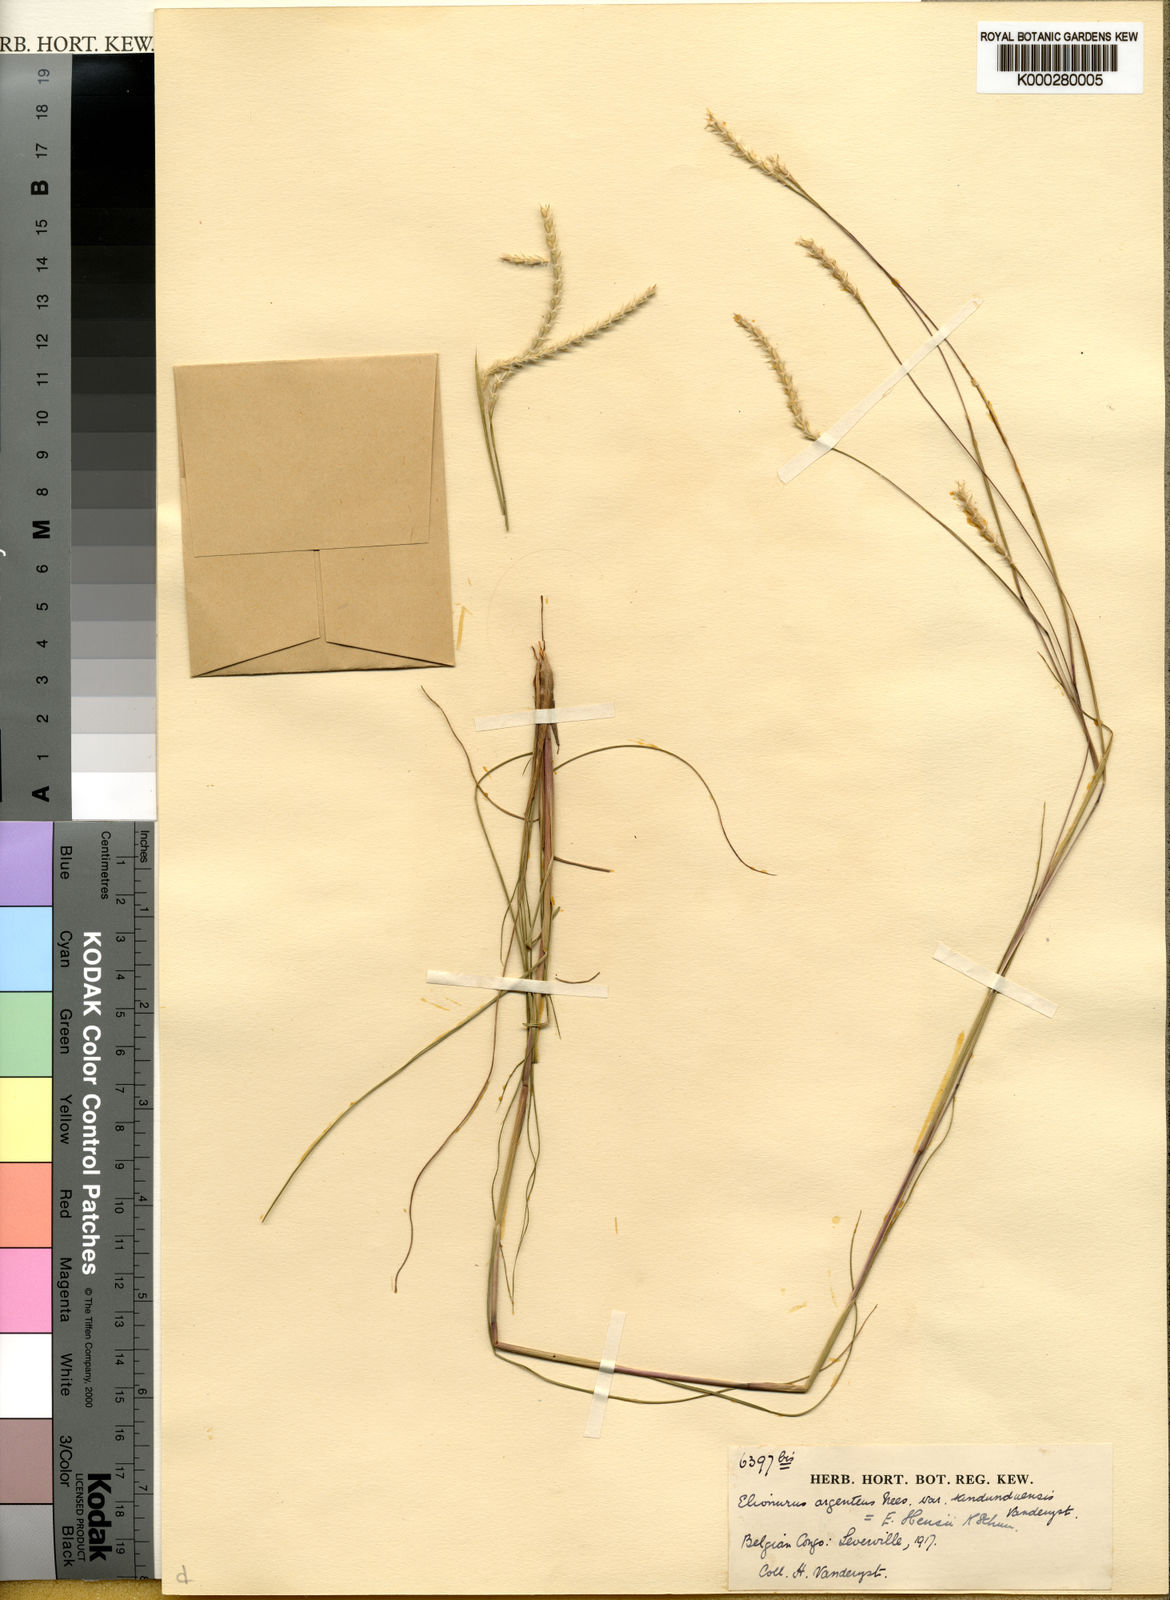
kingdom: Plantae
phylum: Tracheophyta
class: Liliopsida
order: Poales
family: Poaceae
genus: Elionurus
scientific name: Elionurus hensii
